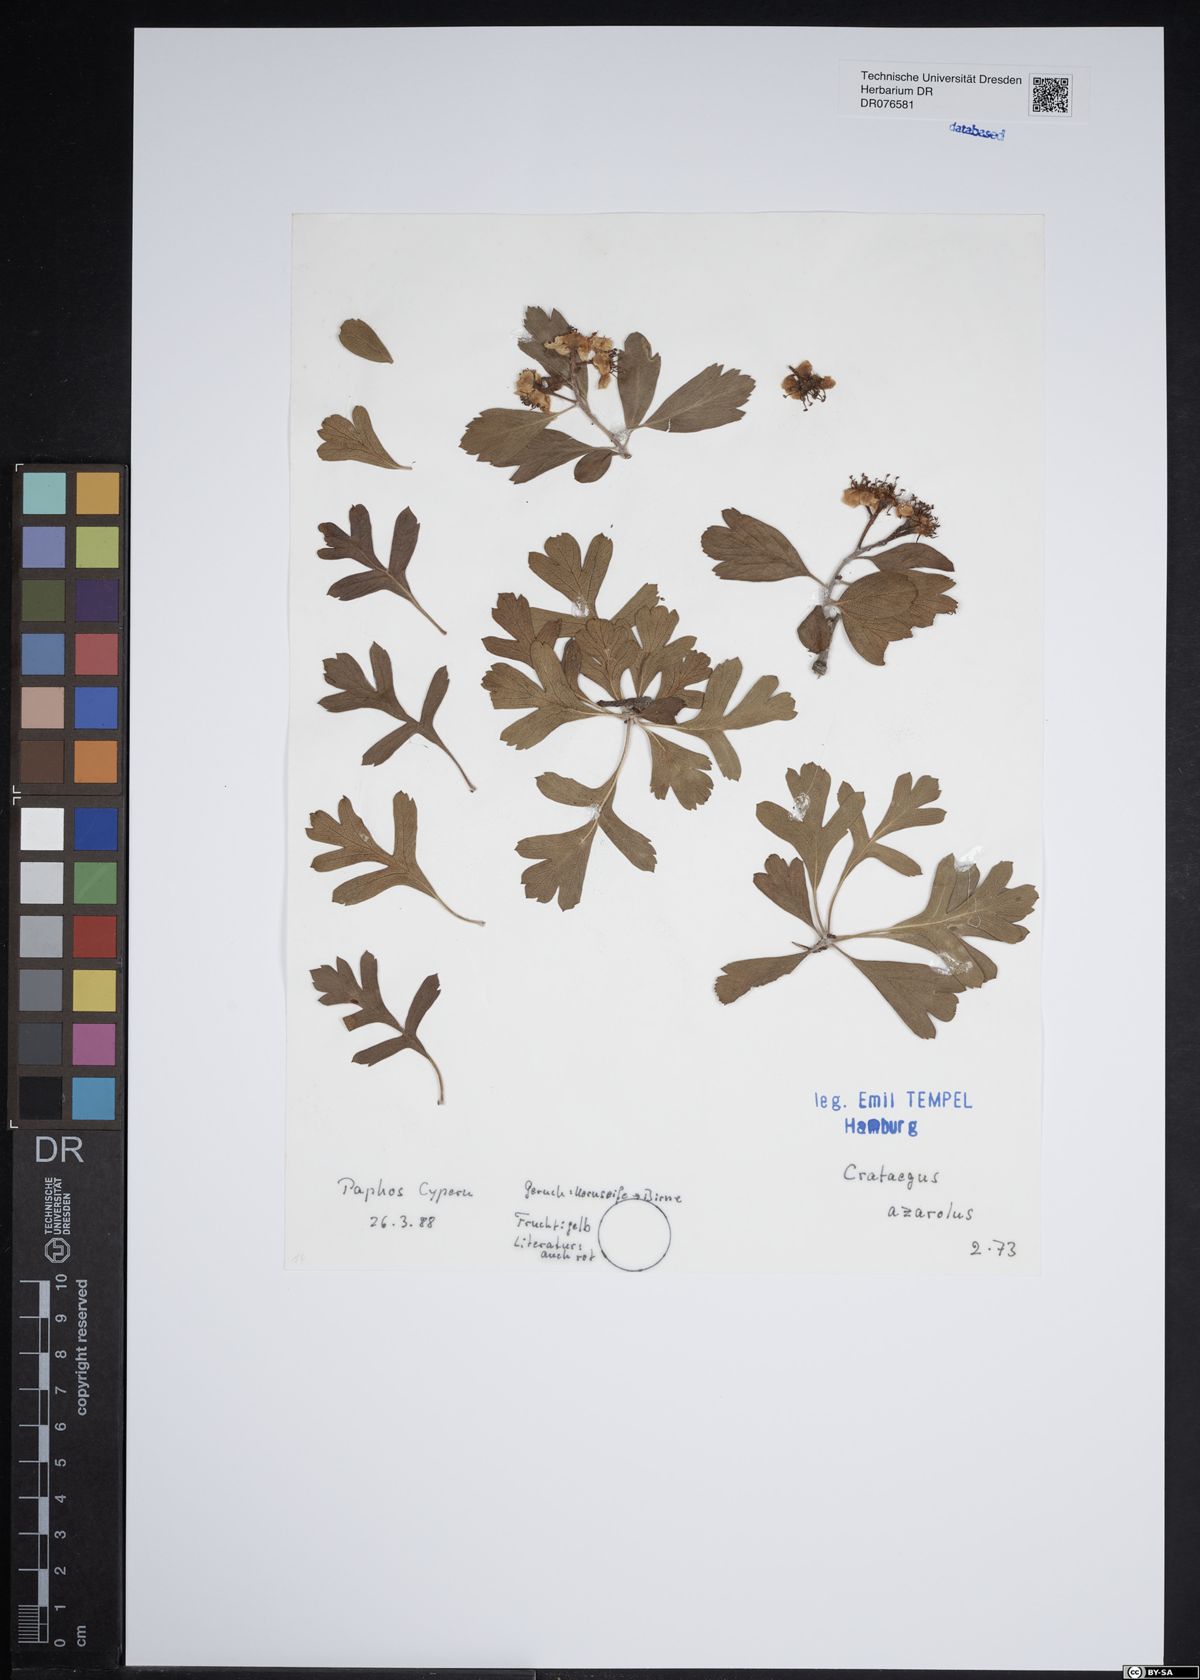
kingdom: Plantae
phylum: Tracheophyta
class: Magnoliopsida
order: Rosales
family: Rosaceae
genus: Crataegus
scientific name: Crataegus azarolus
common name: Azarole
